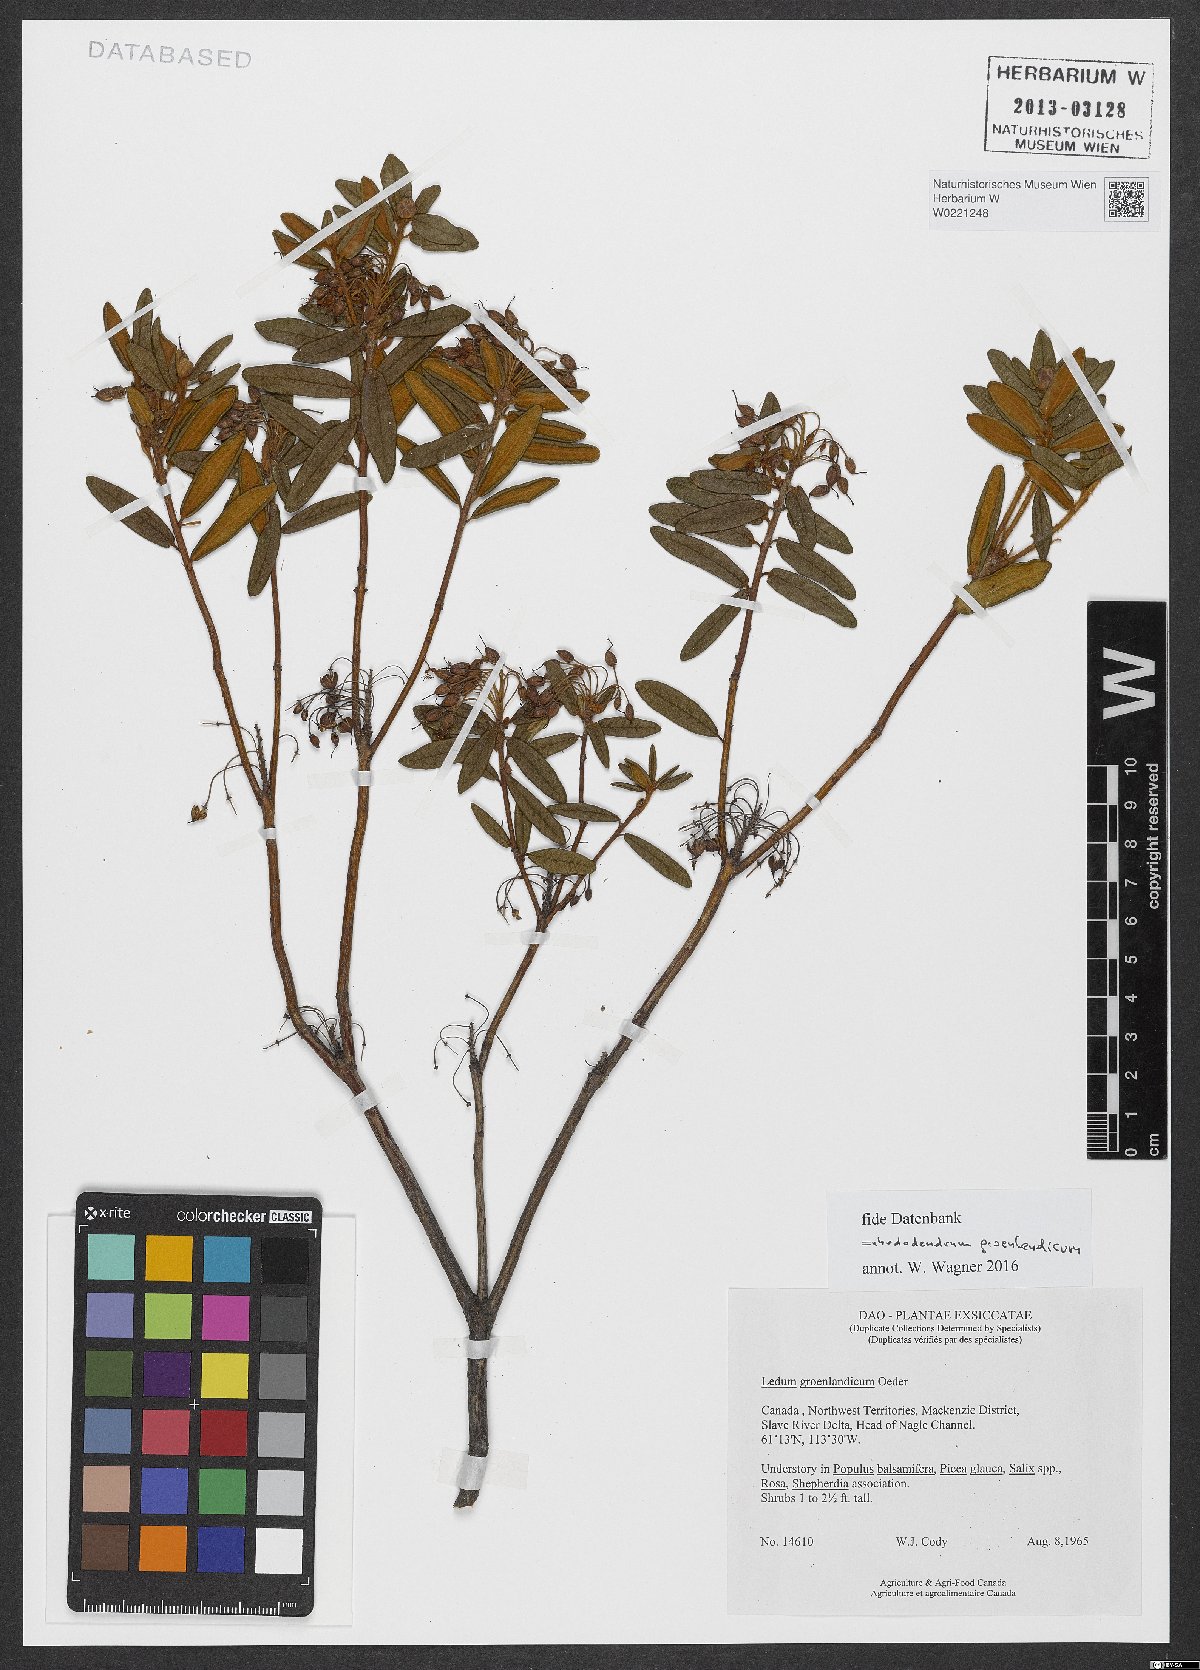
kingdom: Plantae
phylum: Tracheophyta
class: Magnoliopsida
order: Ericales
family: Ericaceae
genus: Rhododendron
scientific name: Rhododendron groenlandicum
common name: Bog labrador tea
